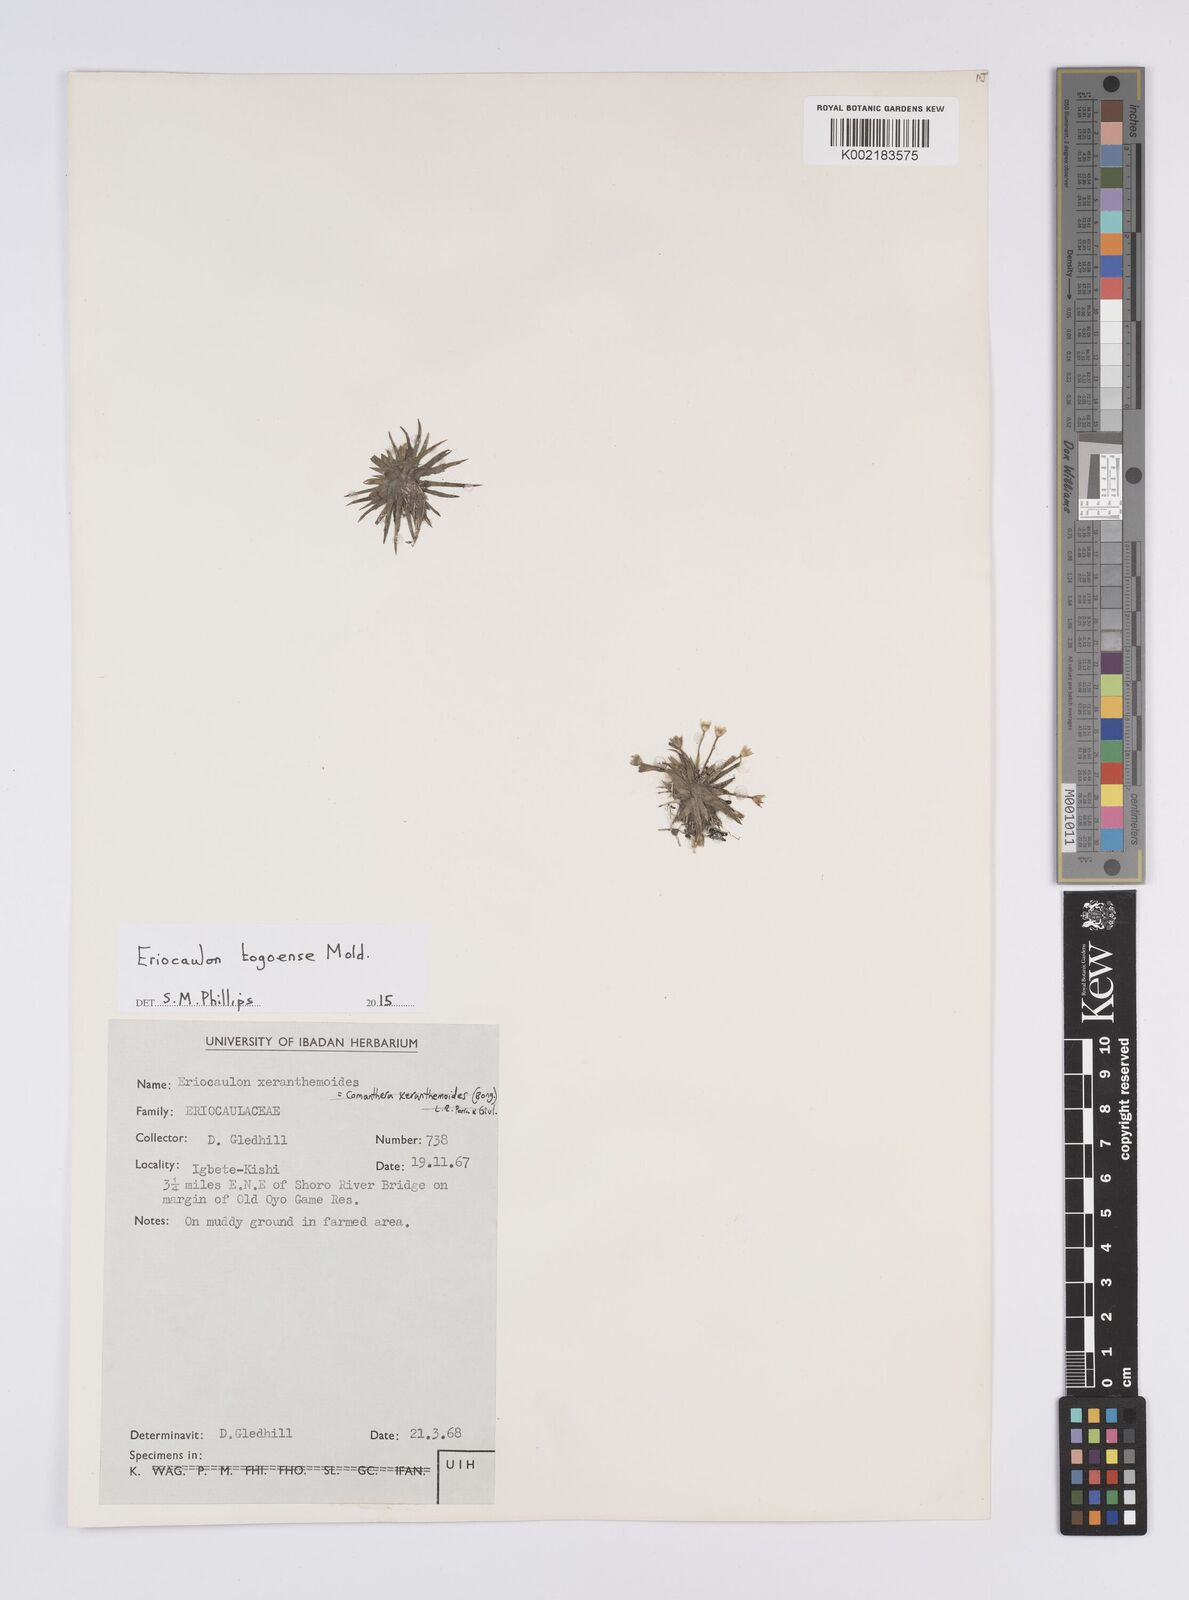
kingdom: Plantae
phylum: Tracheophyta
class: Liliopsida
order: Poales
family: Eriocaulaceae
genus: Eriocaulon
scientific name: Eriocaulon togoense
